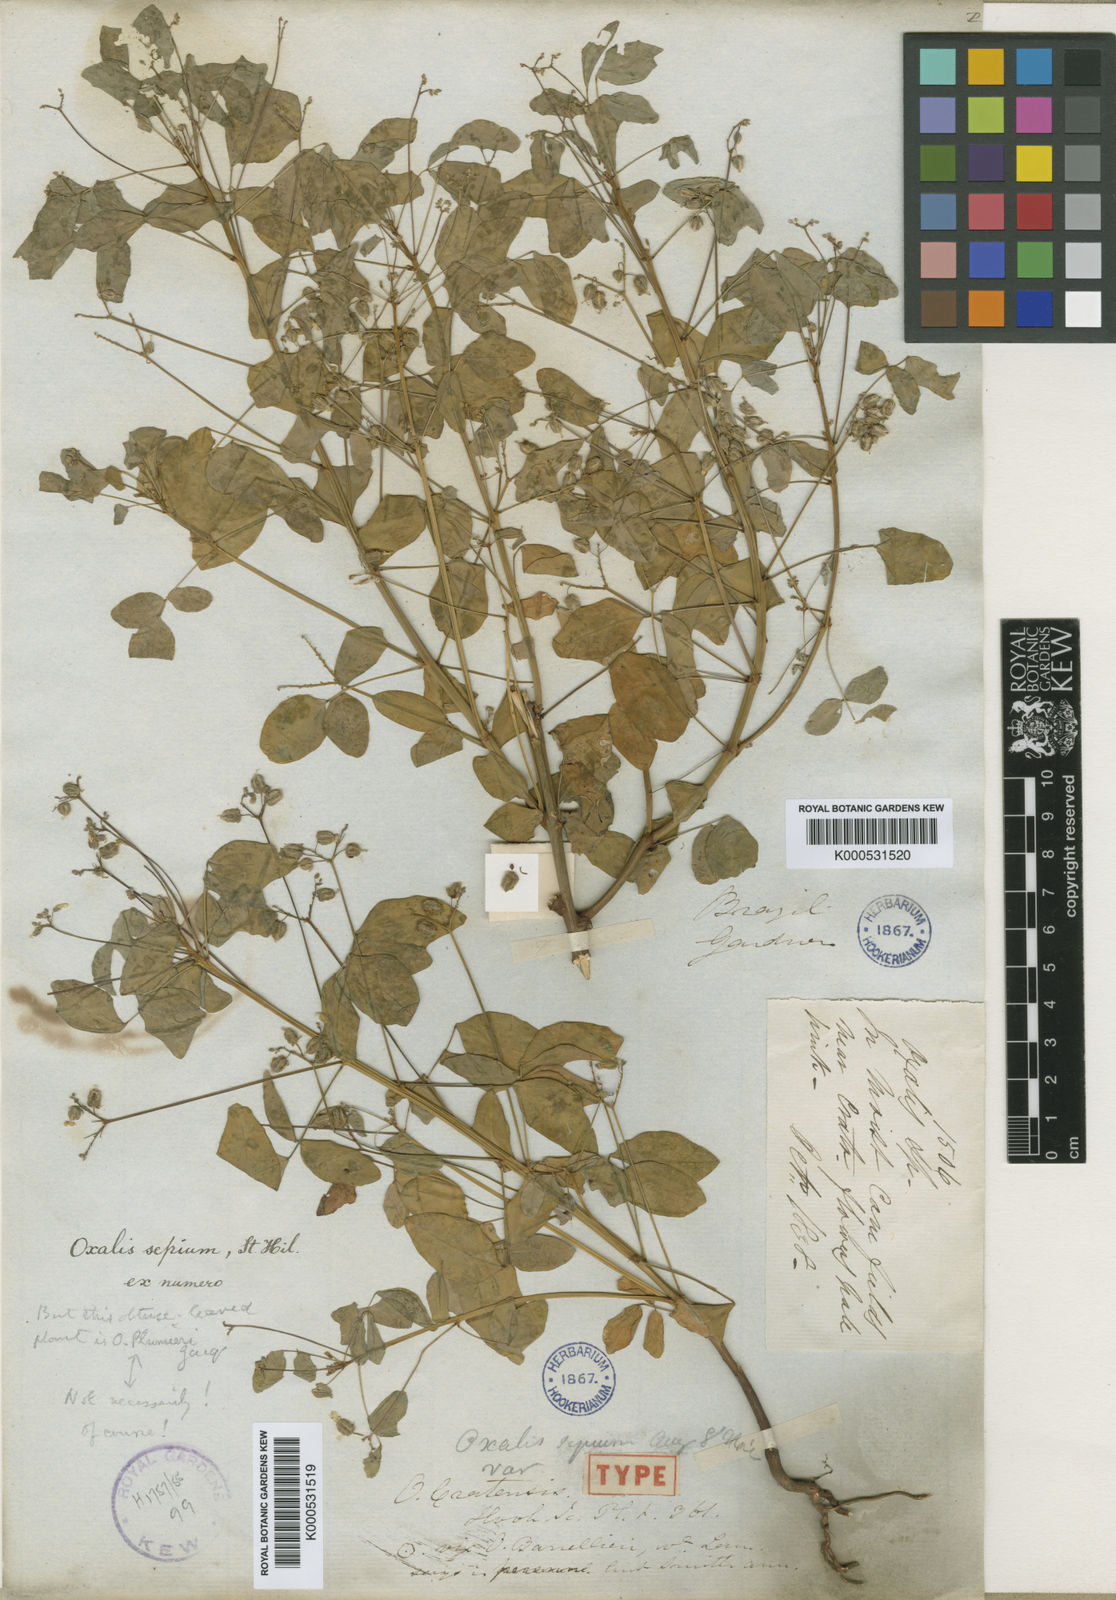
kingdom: Plantae
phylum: Tracheophyta
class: Magnoliopsida
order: Oxalidales
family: Oxalidaceae
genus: Oxalis
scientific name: Oxalis cratensis
